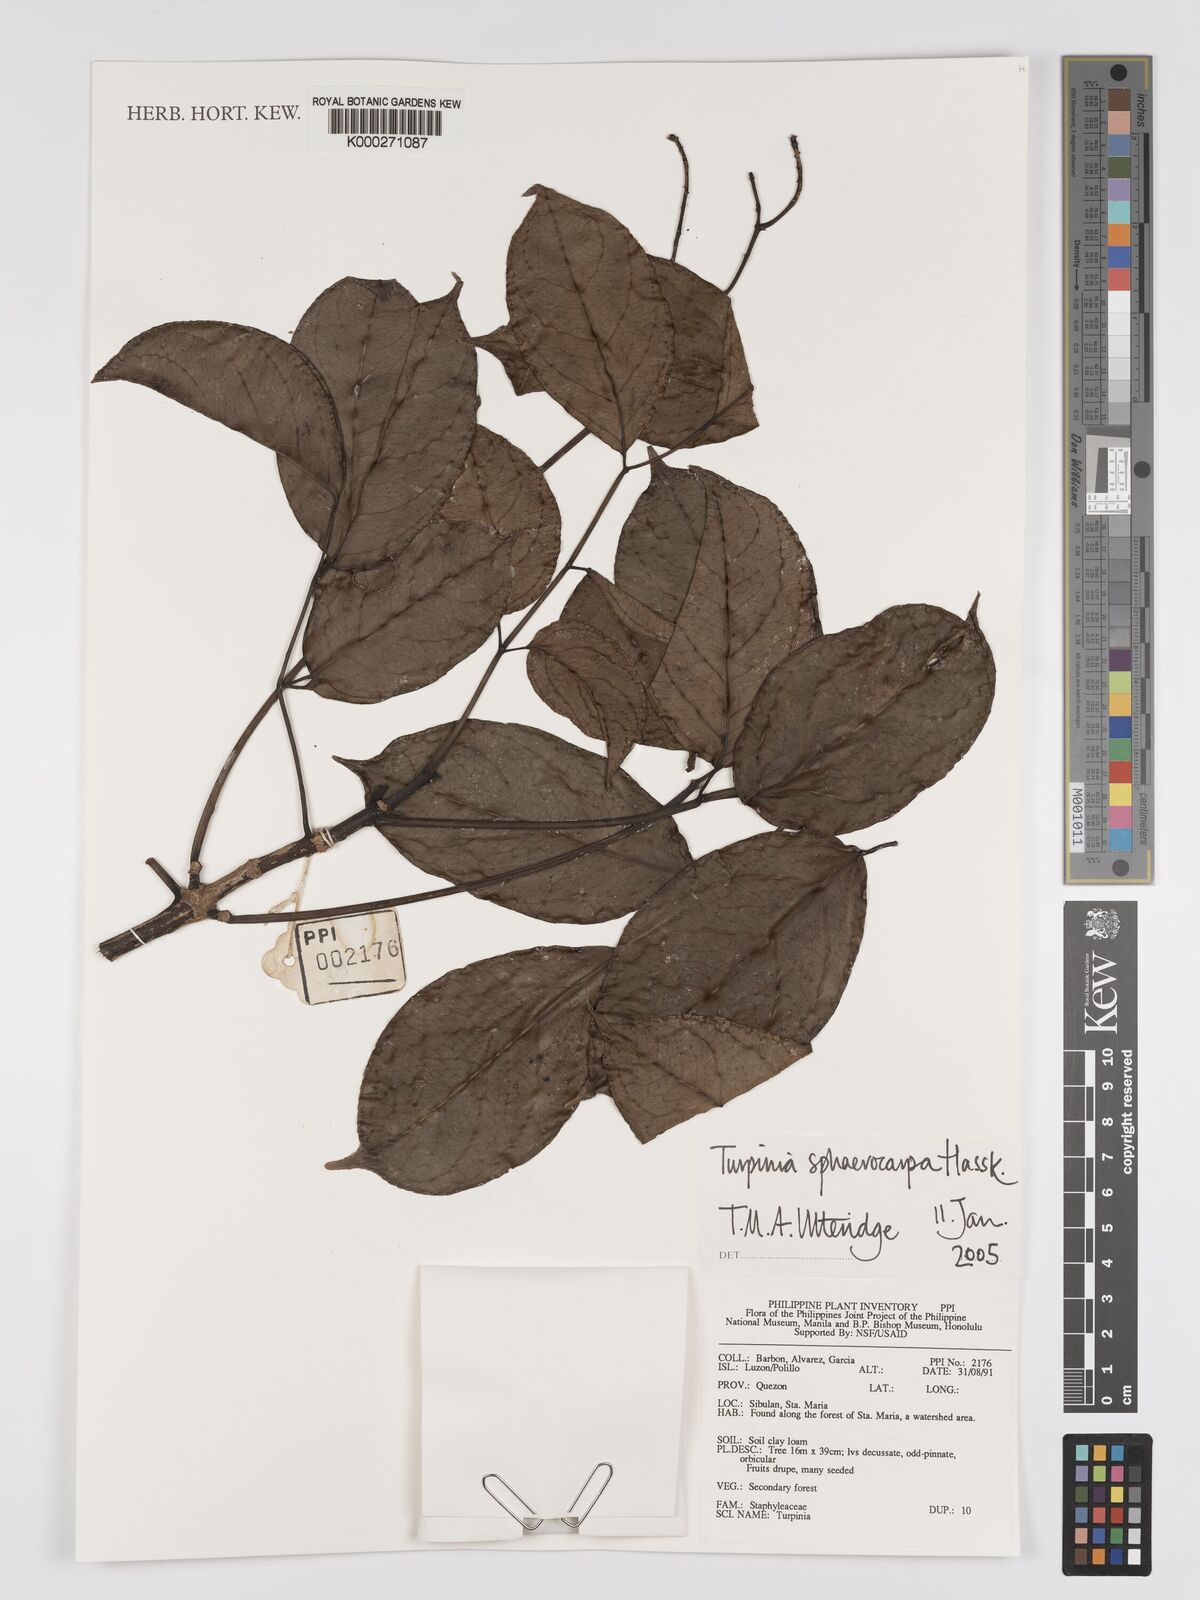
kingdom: Plantae
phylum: Tracheophyta
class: Magnoliopsida
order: Crossosomatales
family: Staphyleaceae
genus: Dalrympelea
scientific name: Dalrympelea sphaerocarpa
